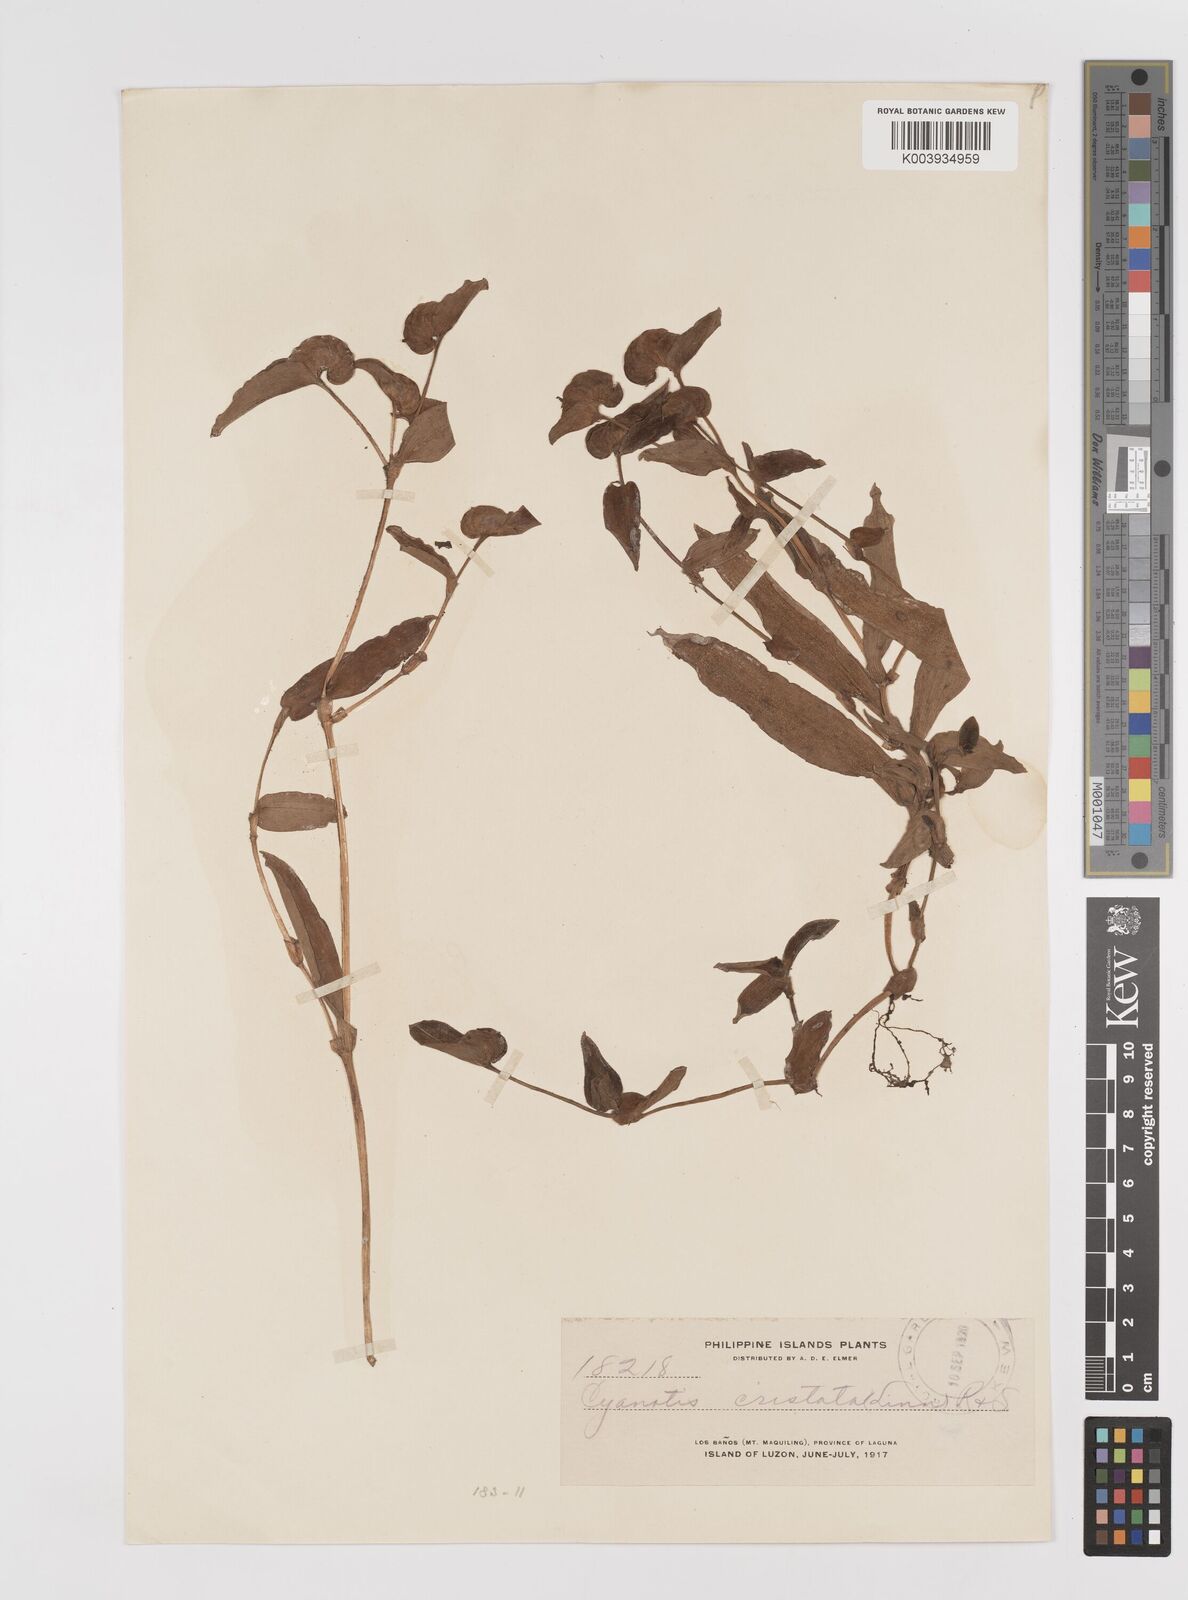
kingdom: Plantae
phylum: Tracheophyta
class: Liliopsida
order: Commelinales
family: Commelinaceae
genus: Cyanotis
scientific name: Cyanotis cristata
